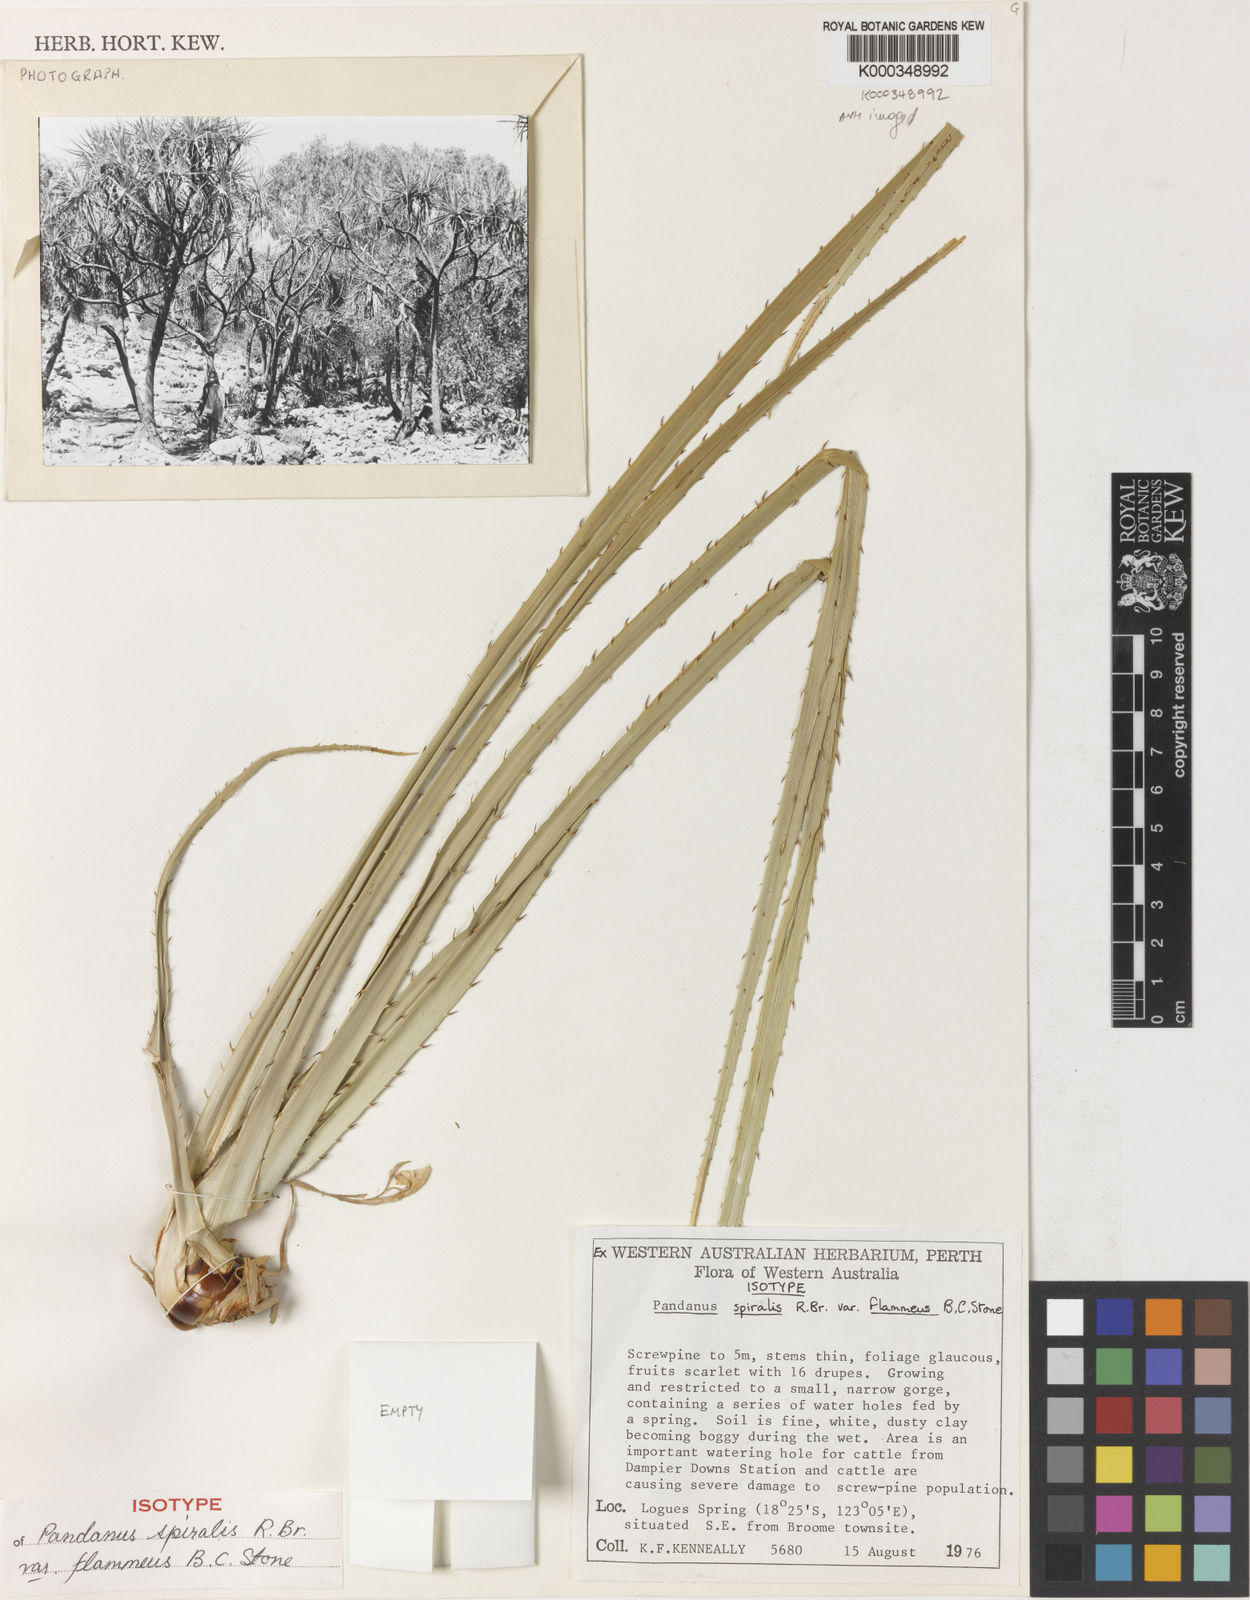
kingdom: Plantae
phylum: Tracheophyta
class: Liliopsida
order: Pandanales
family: Pandanaceae
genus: Pandanus
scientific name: Pandanus spiralis
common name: Screw-pine
